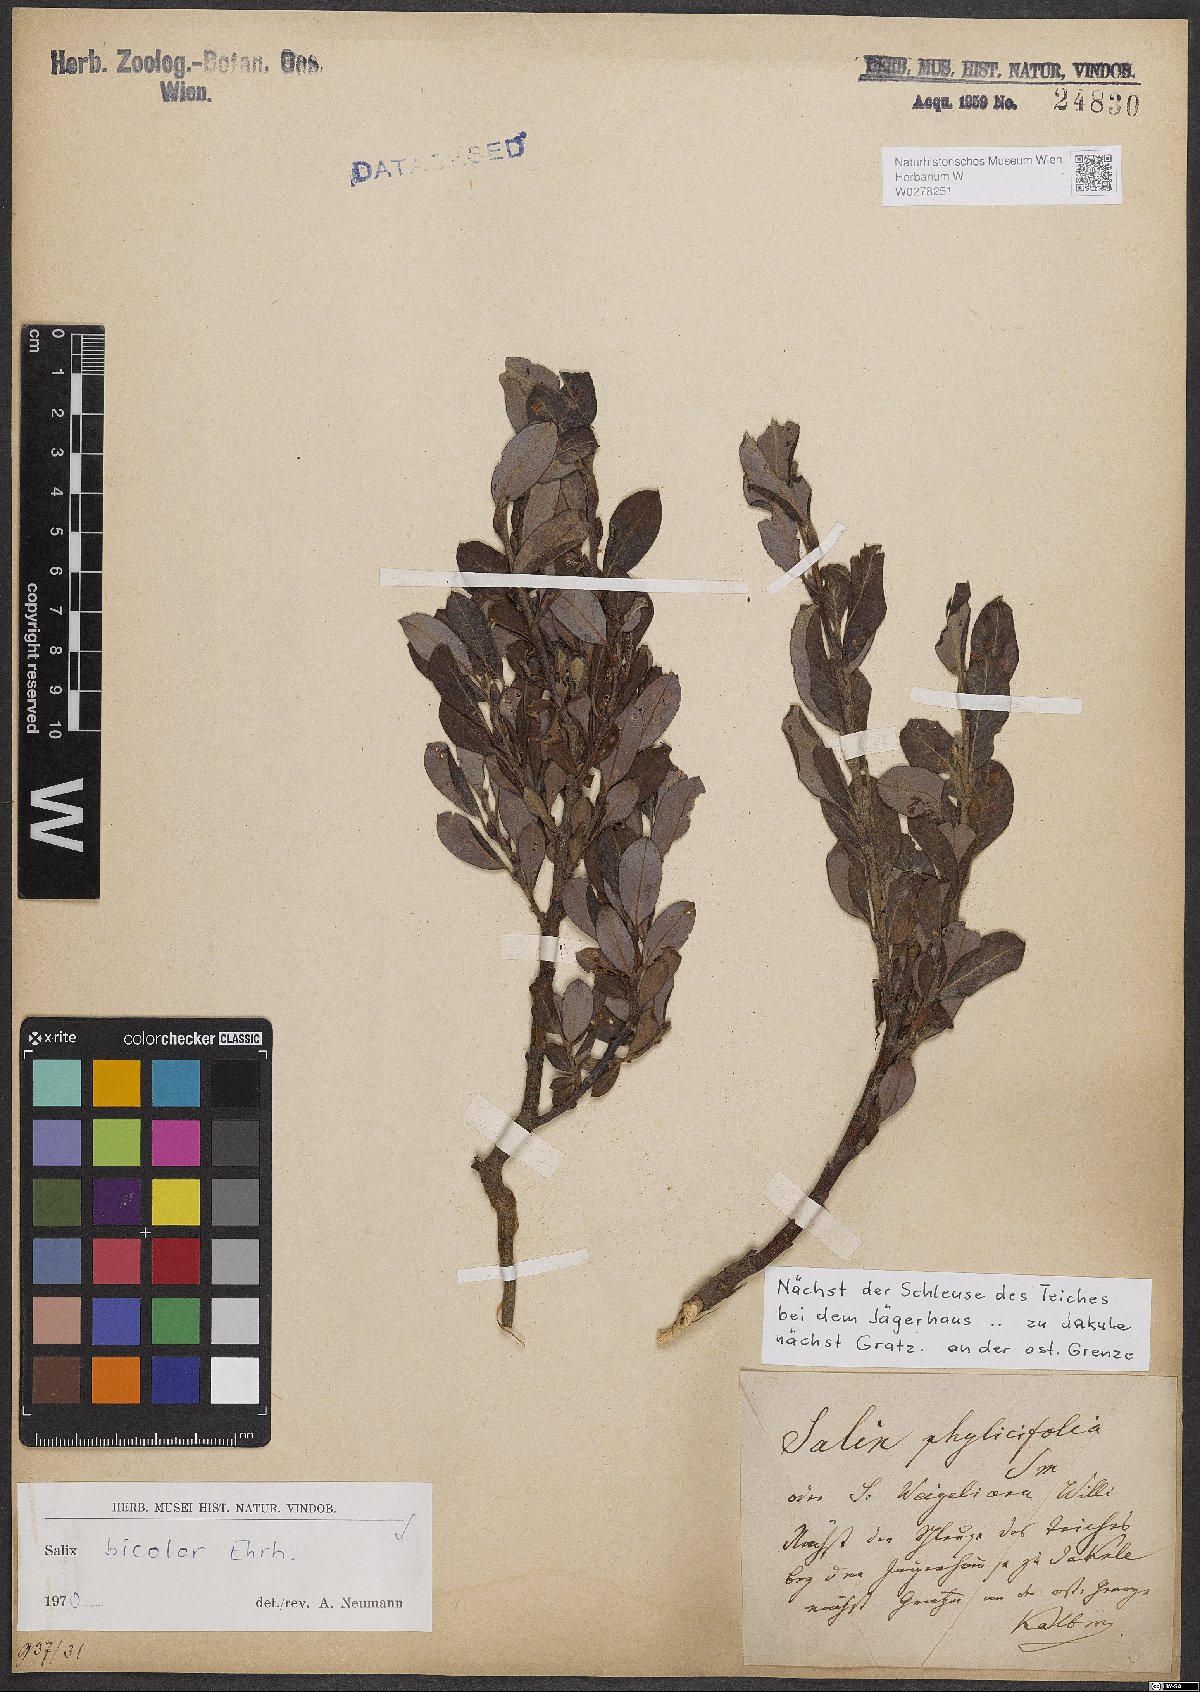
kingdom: Plantae
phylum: Tracheophyta
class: Magnoliopsida
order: Malpighiales
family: Salicaceae
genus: Salix
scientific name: Salix bicolor
